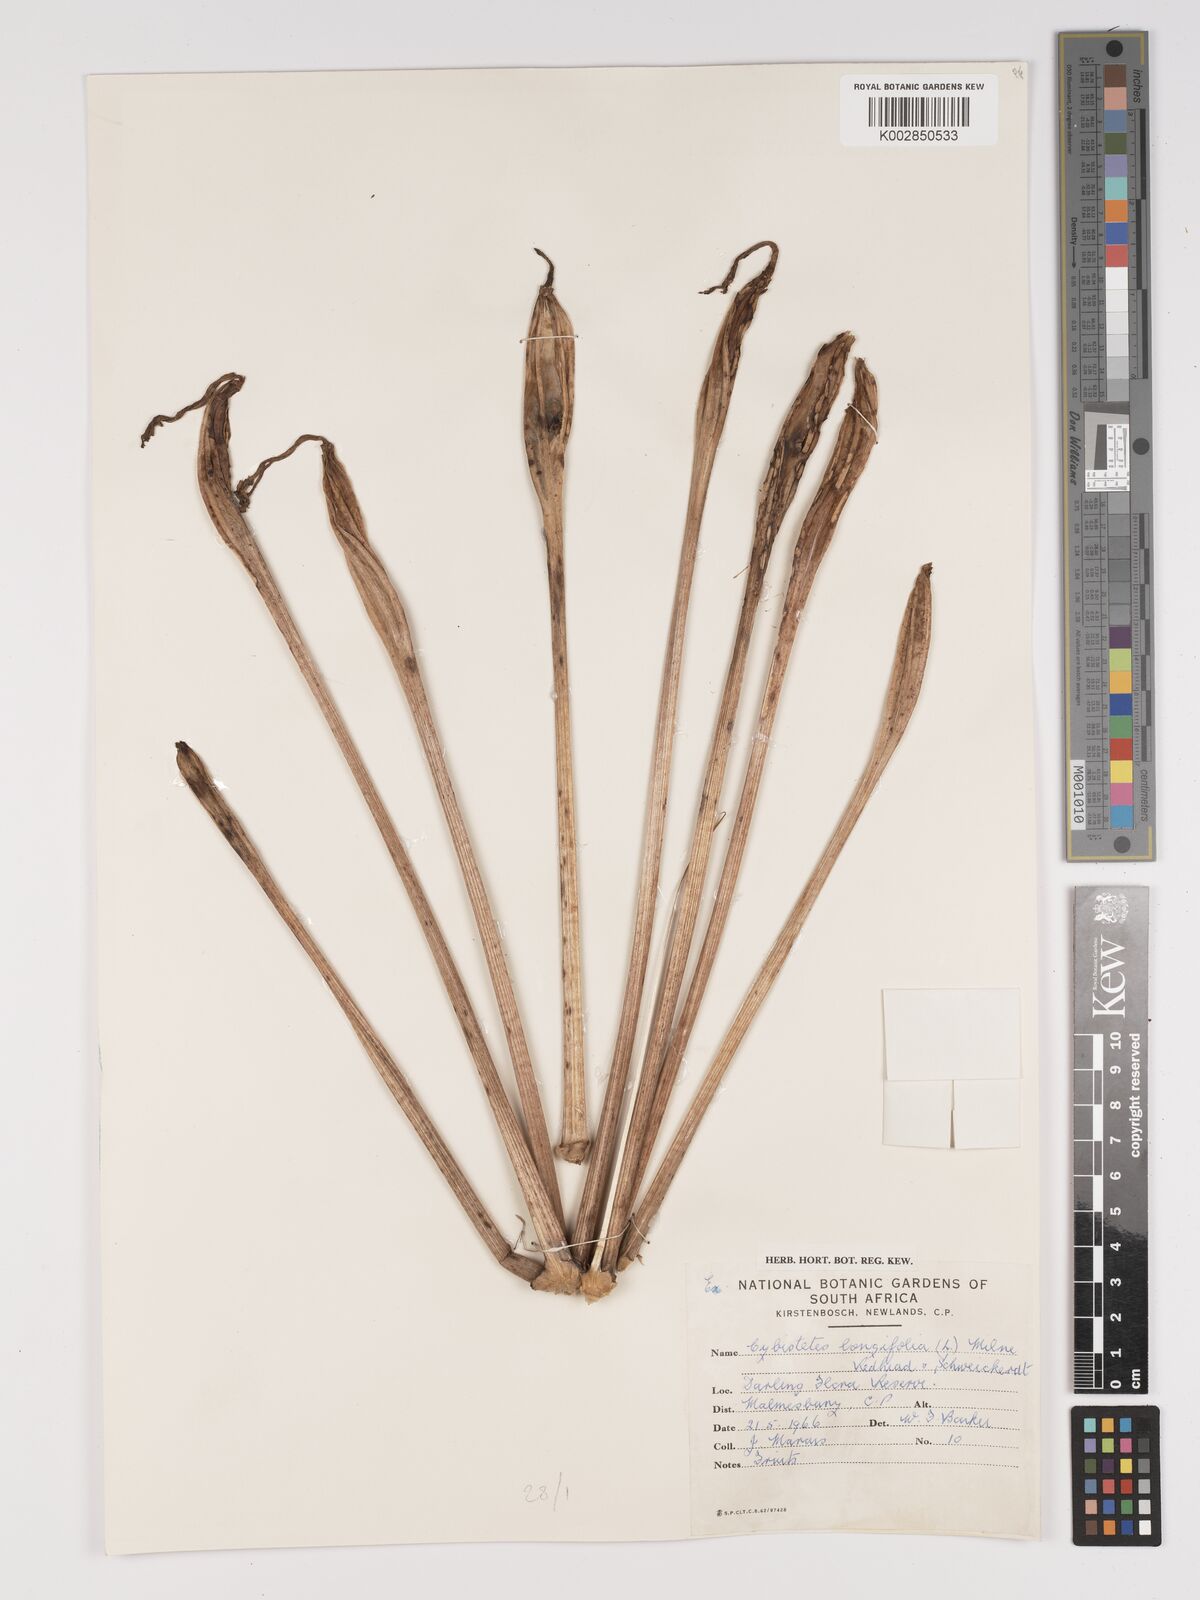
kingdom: Plantae
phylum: Tracheophyta
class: Liliopsida
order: Asparagales
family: Amaryllidaceae
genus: Ammocharis
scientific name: Ammocharis longifolia
